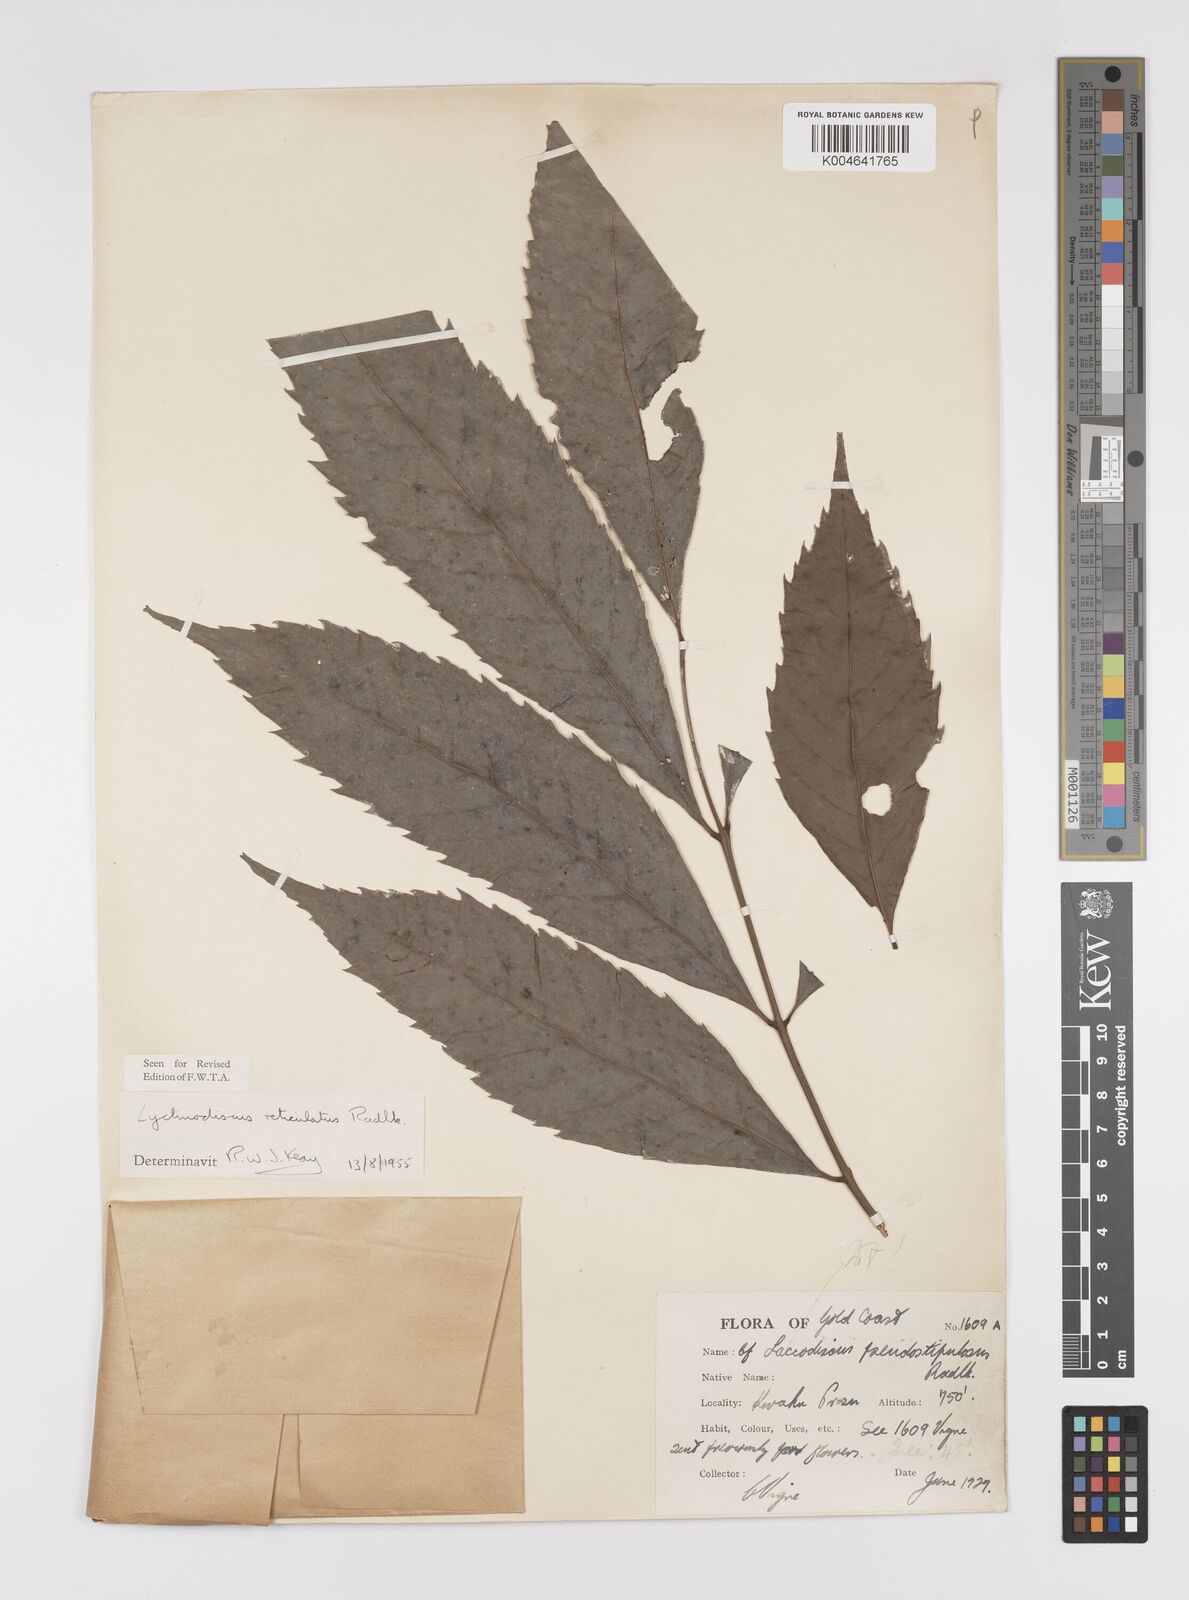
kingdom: Plantae
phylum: Tracheophyta
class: Magnoliopsida
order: Sapindales
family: Sapindaceae
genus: Lychnodiscus
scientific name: Lychnodiscus reticulatus
